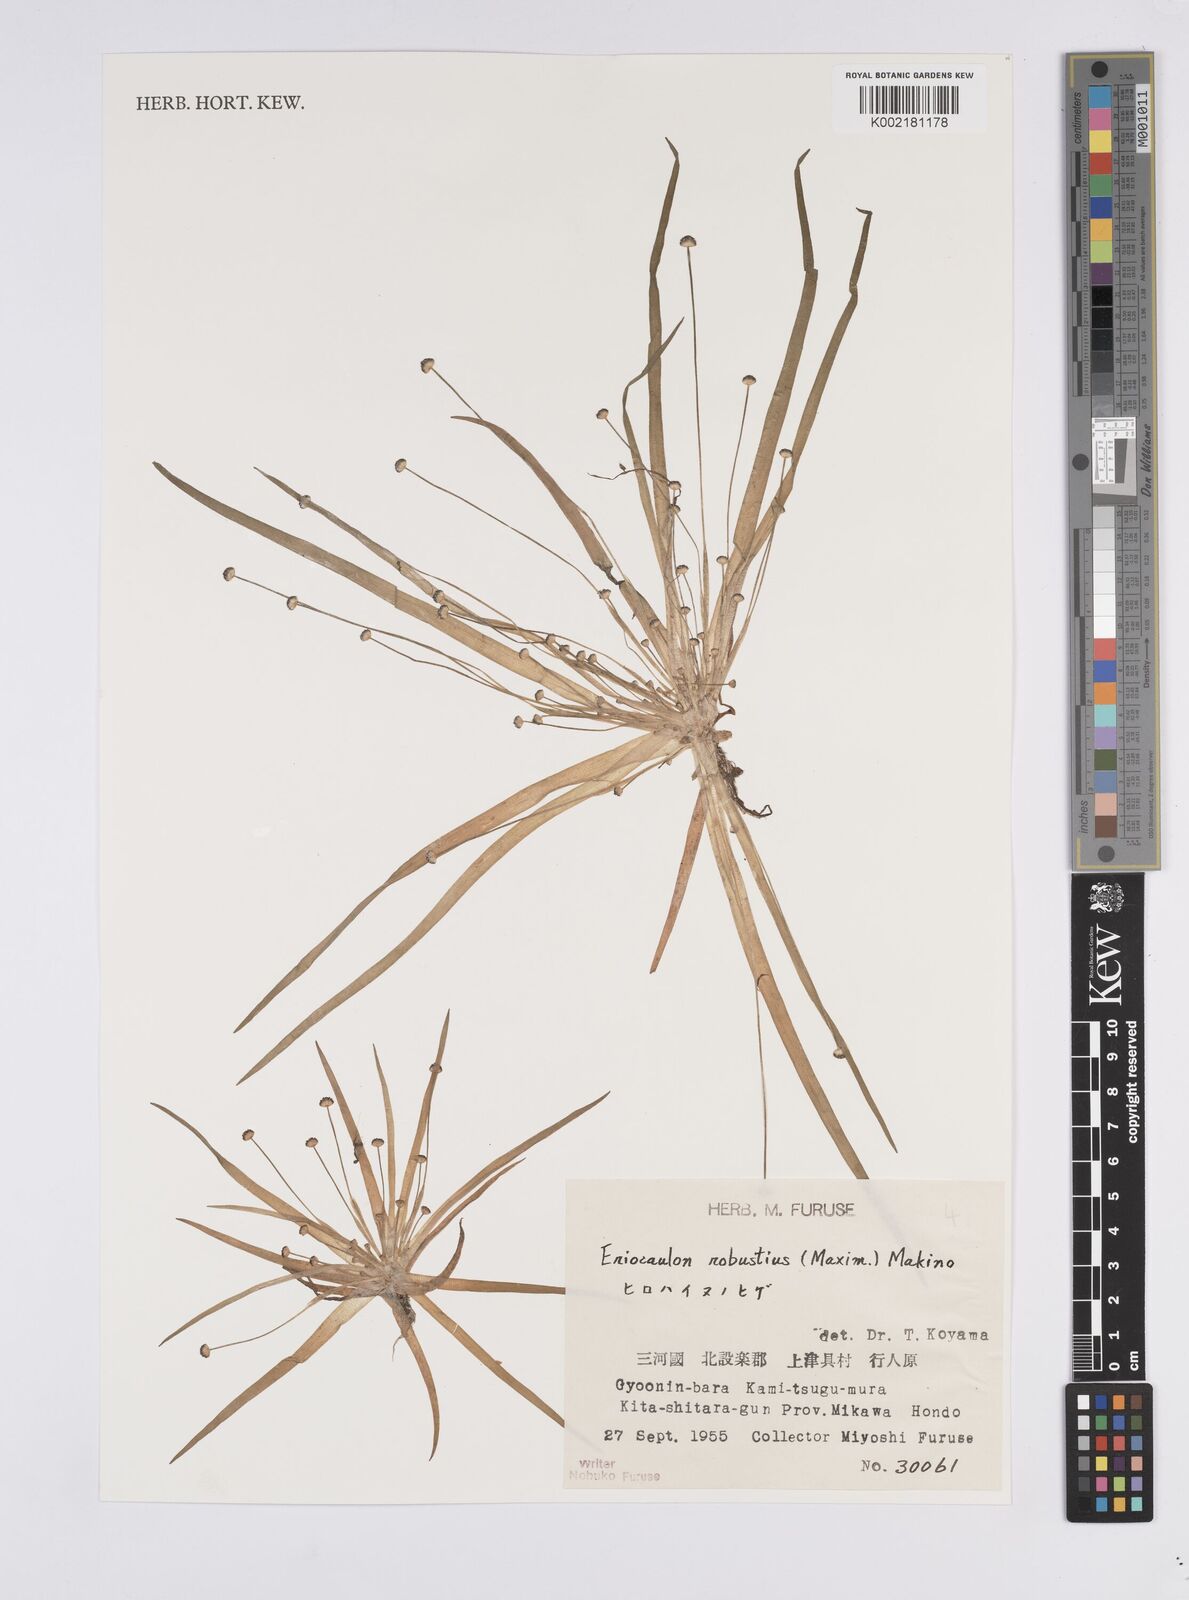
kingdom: Plantae
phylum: Tracheophyta
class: Liliopsida
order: Poales
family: Eriocaulaceae
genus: Eriocaulon
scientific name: Eriocaulon alpestre
